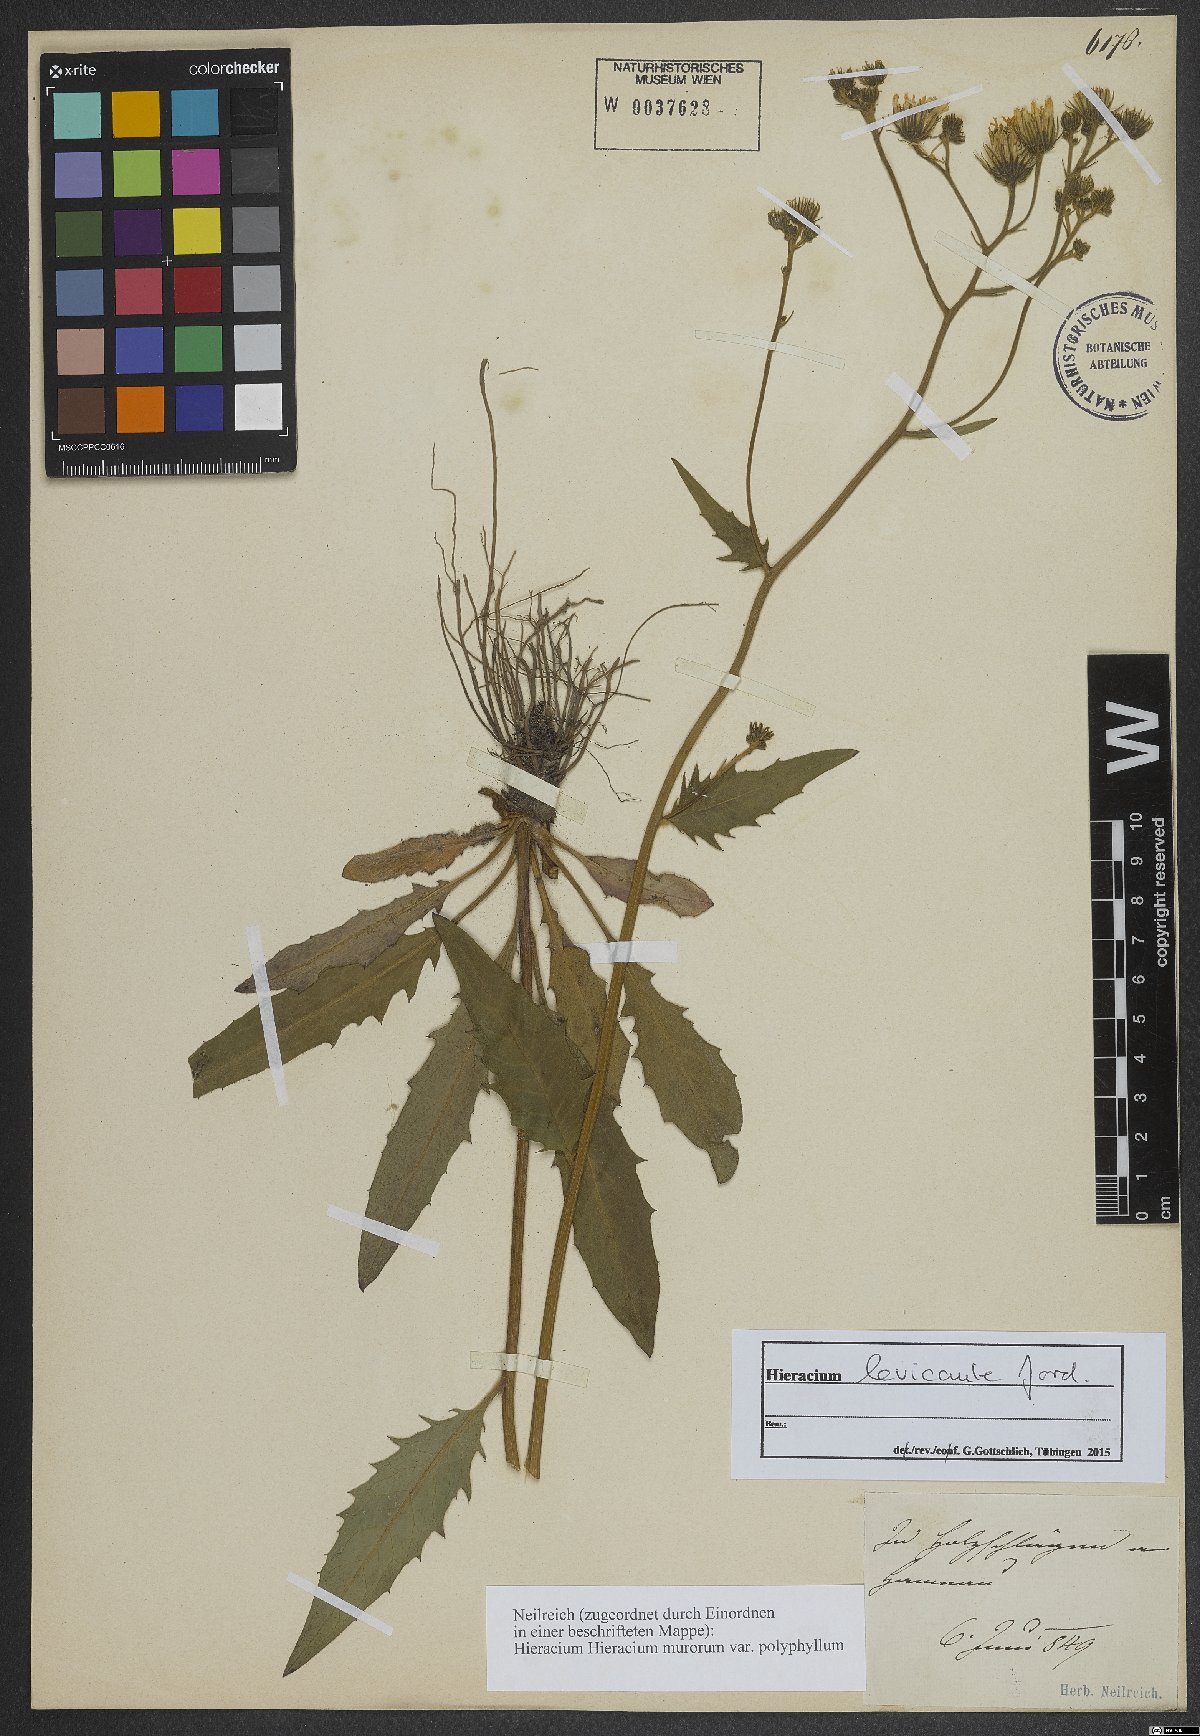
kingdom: Plantae
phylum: Tracheophyta
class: Magnoliopsida
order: Asterales
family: Asteraceae
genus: Hieracium
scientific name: Hieracium levicaule
